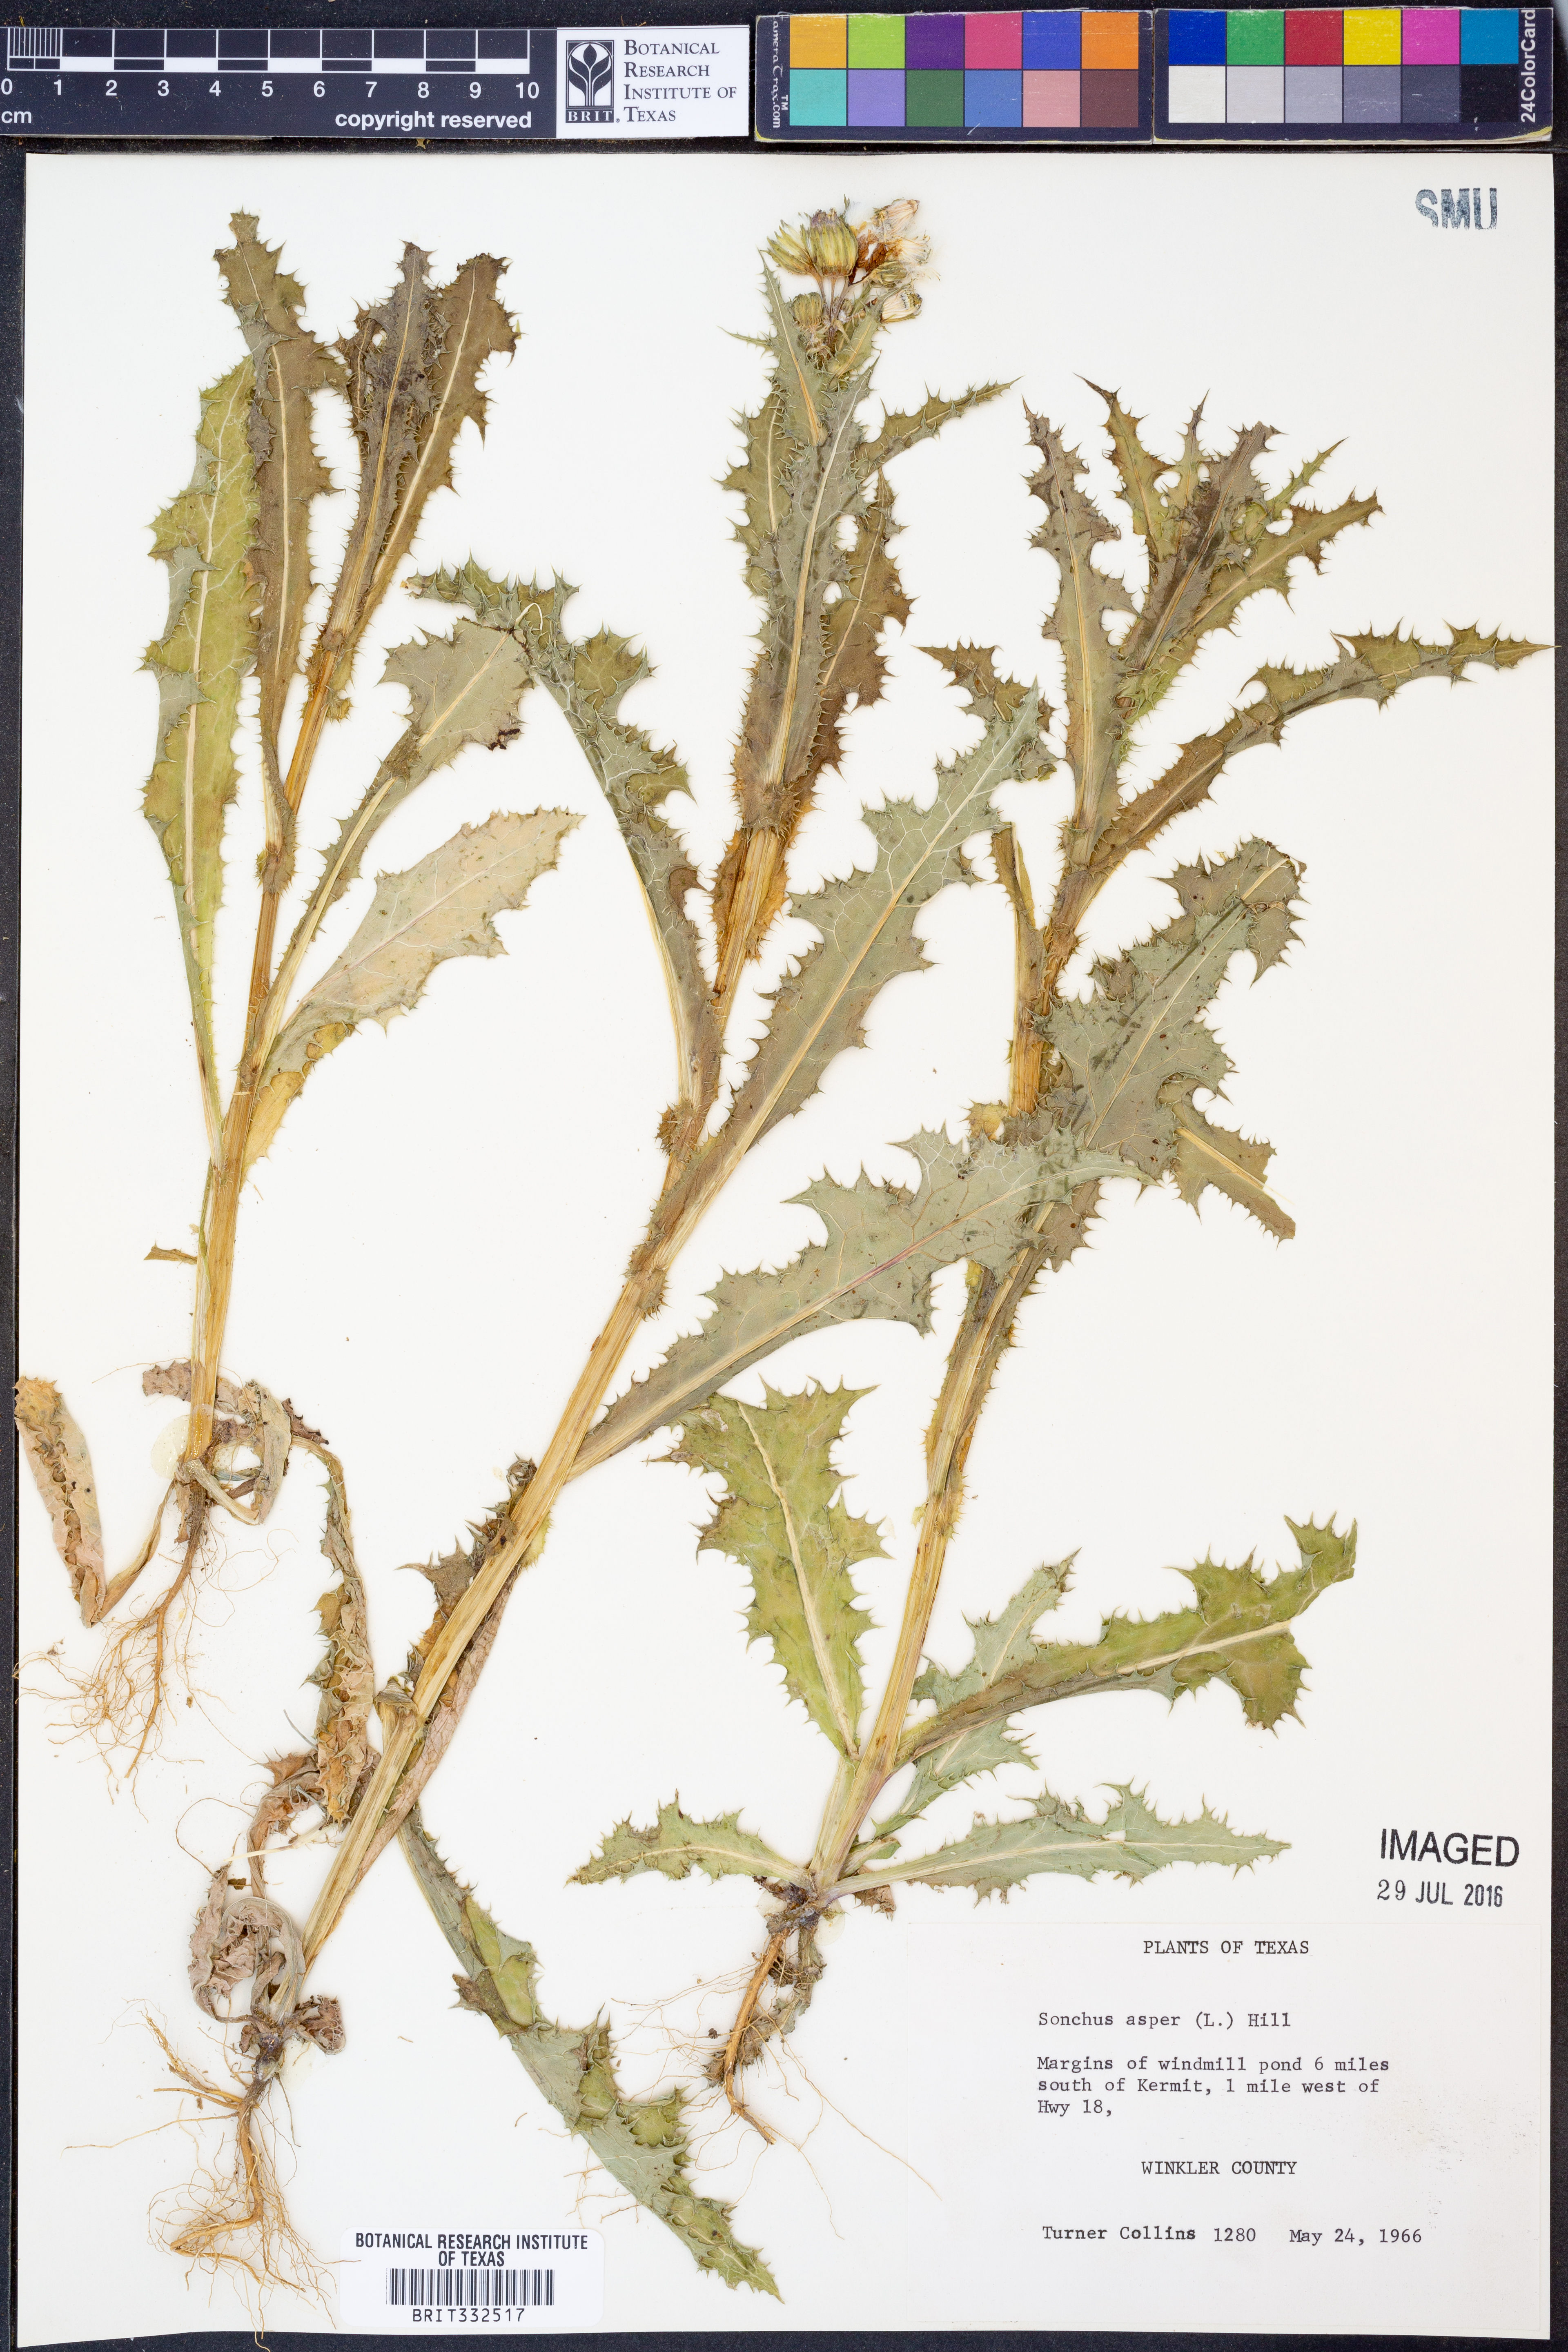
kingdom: Plantae
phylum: Tracheophyta
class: Magnoliopsida
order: Asterales
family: Asteraceae
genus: Sonchus
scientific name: Sonchus asper
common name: Prickly sow-thistle
